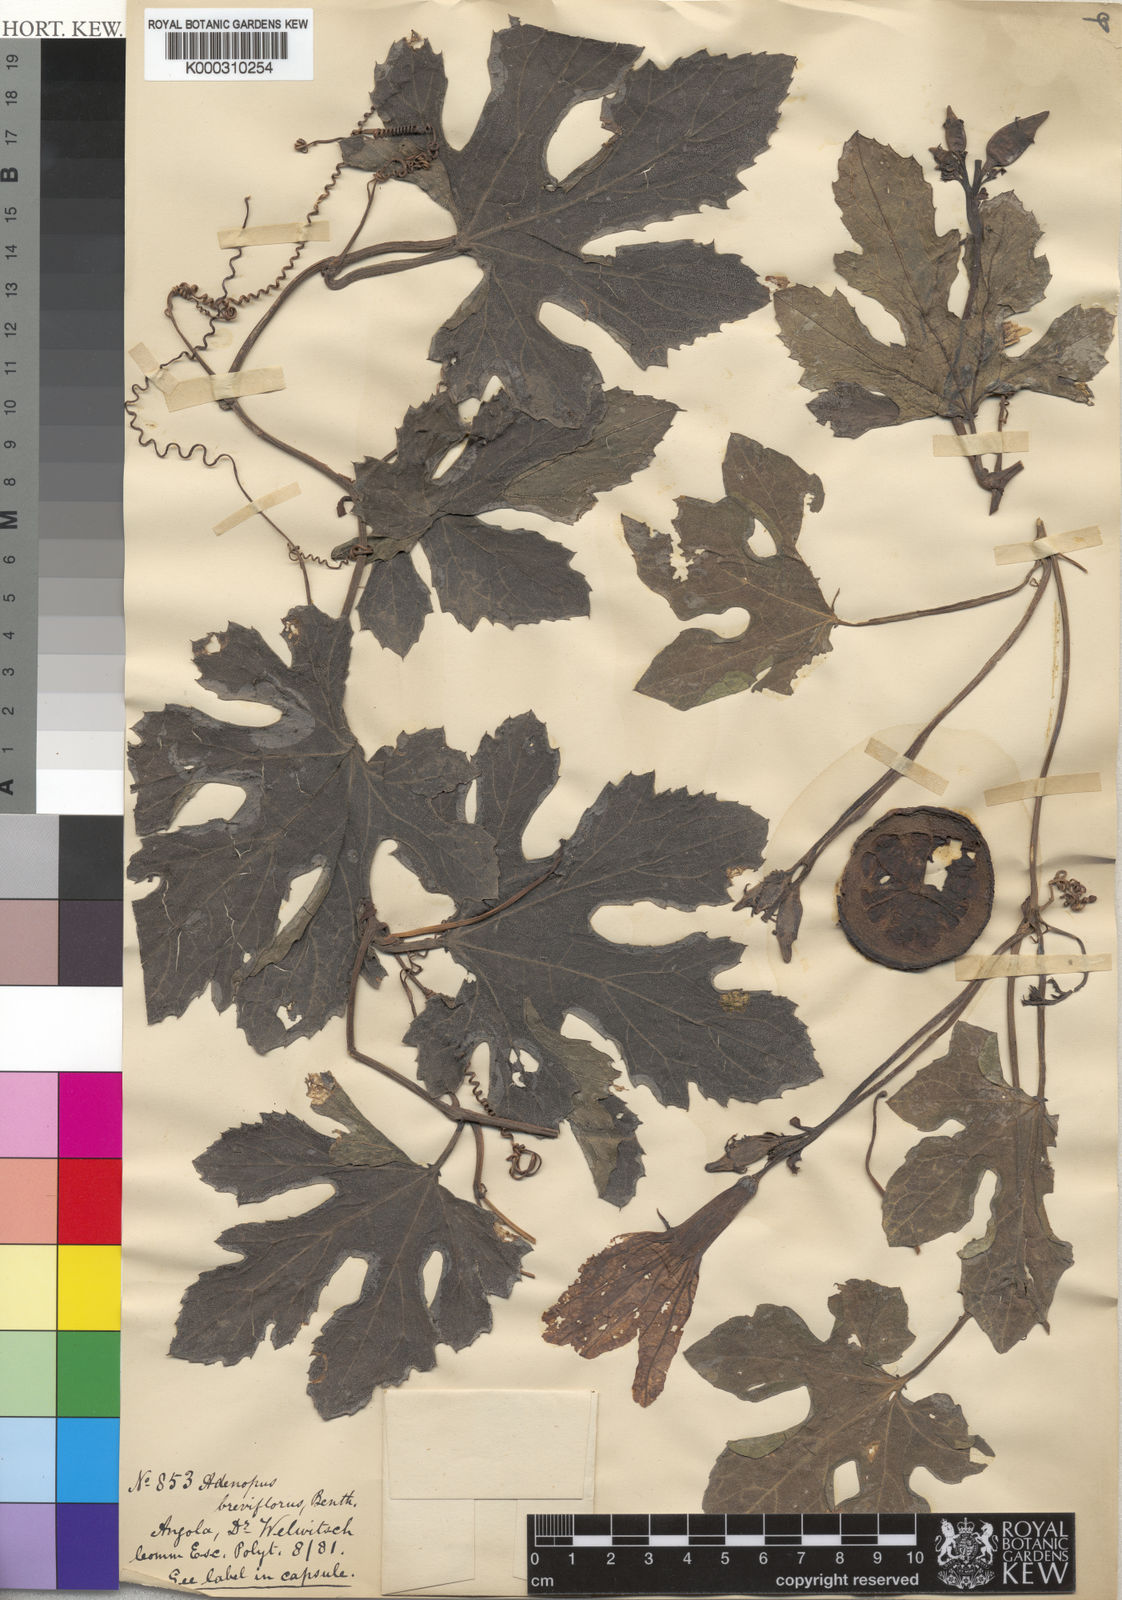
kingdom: Plantae
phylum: Tracheophyta
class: Magnoliopsida
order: Cucurbitales
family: Cucurbitaceae
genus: Lagenaria
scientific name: Lagenaria breviflora
